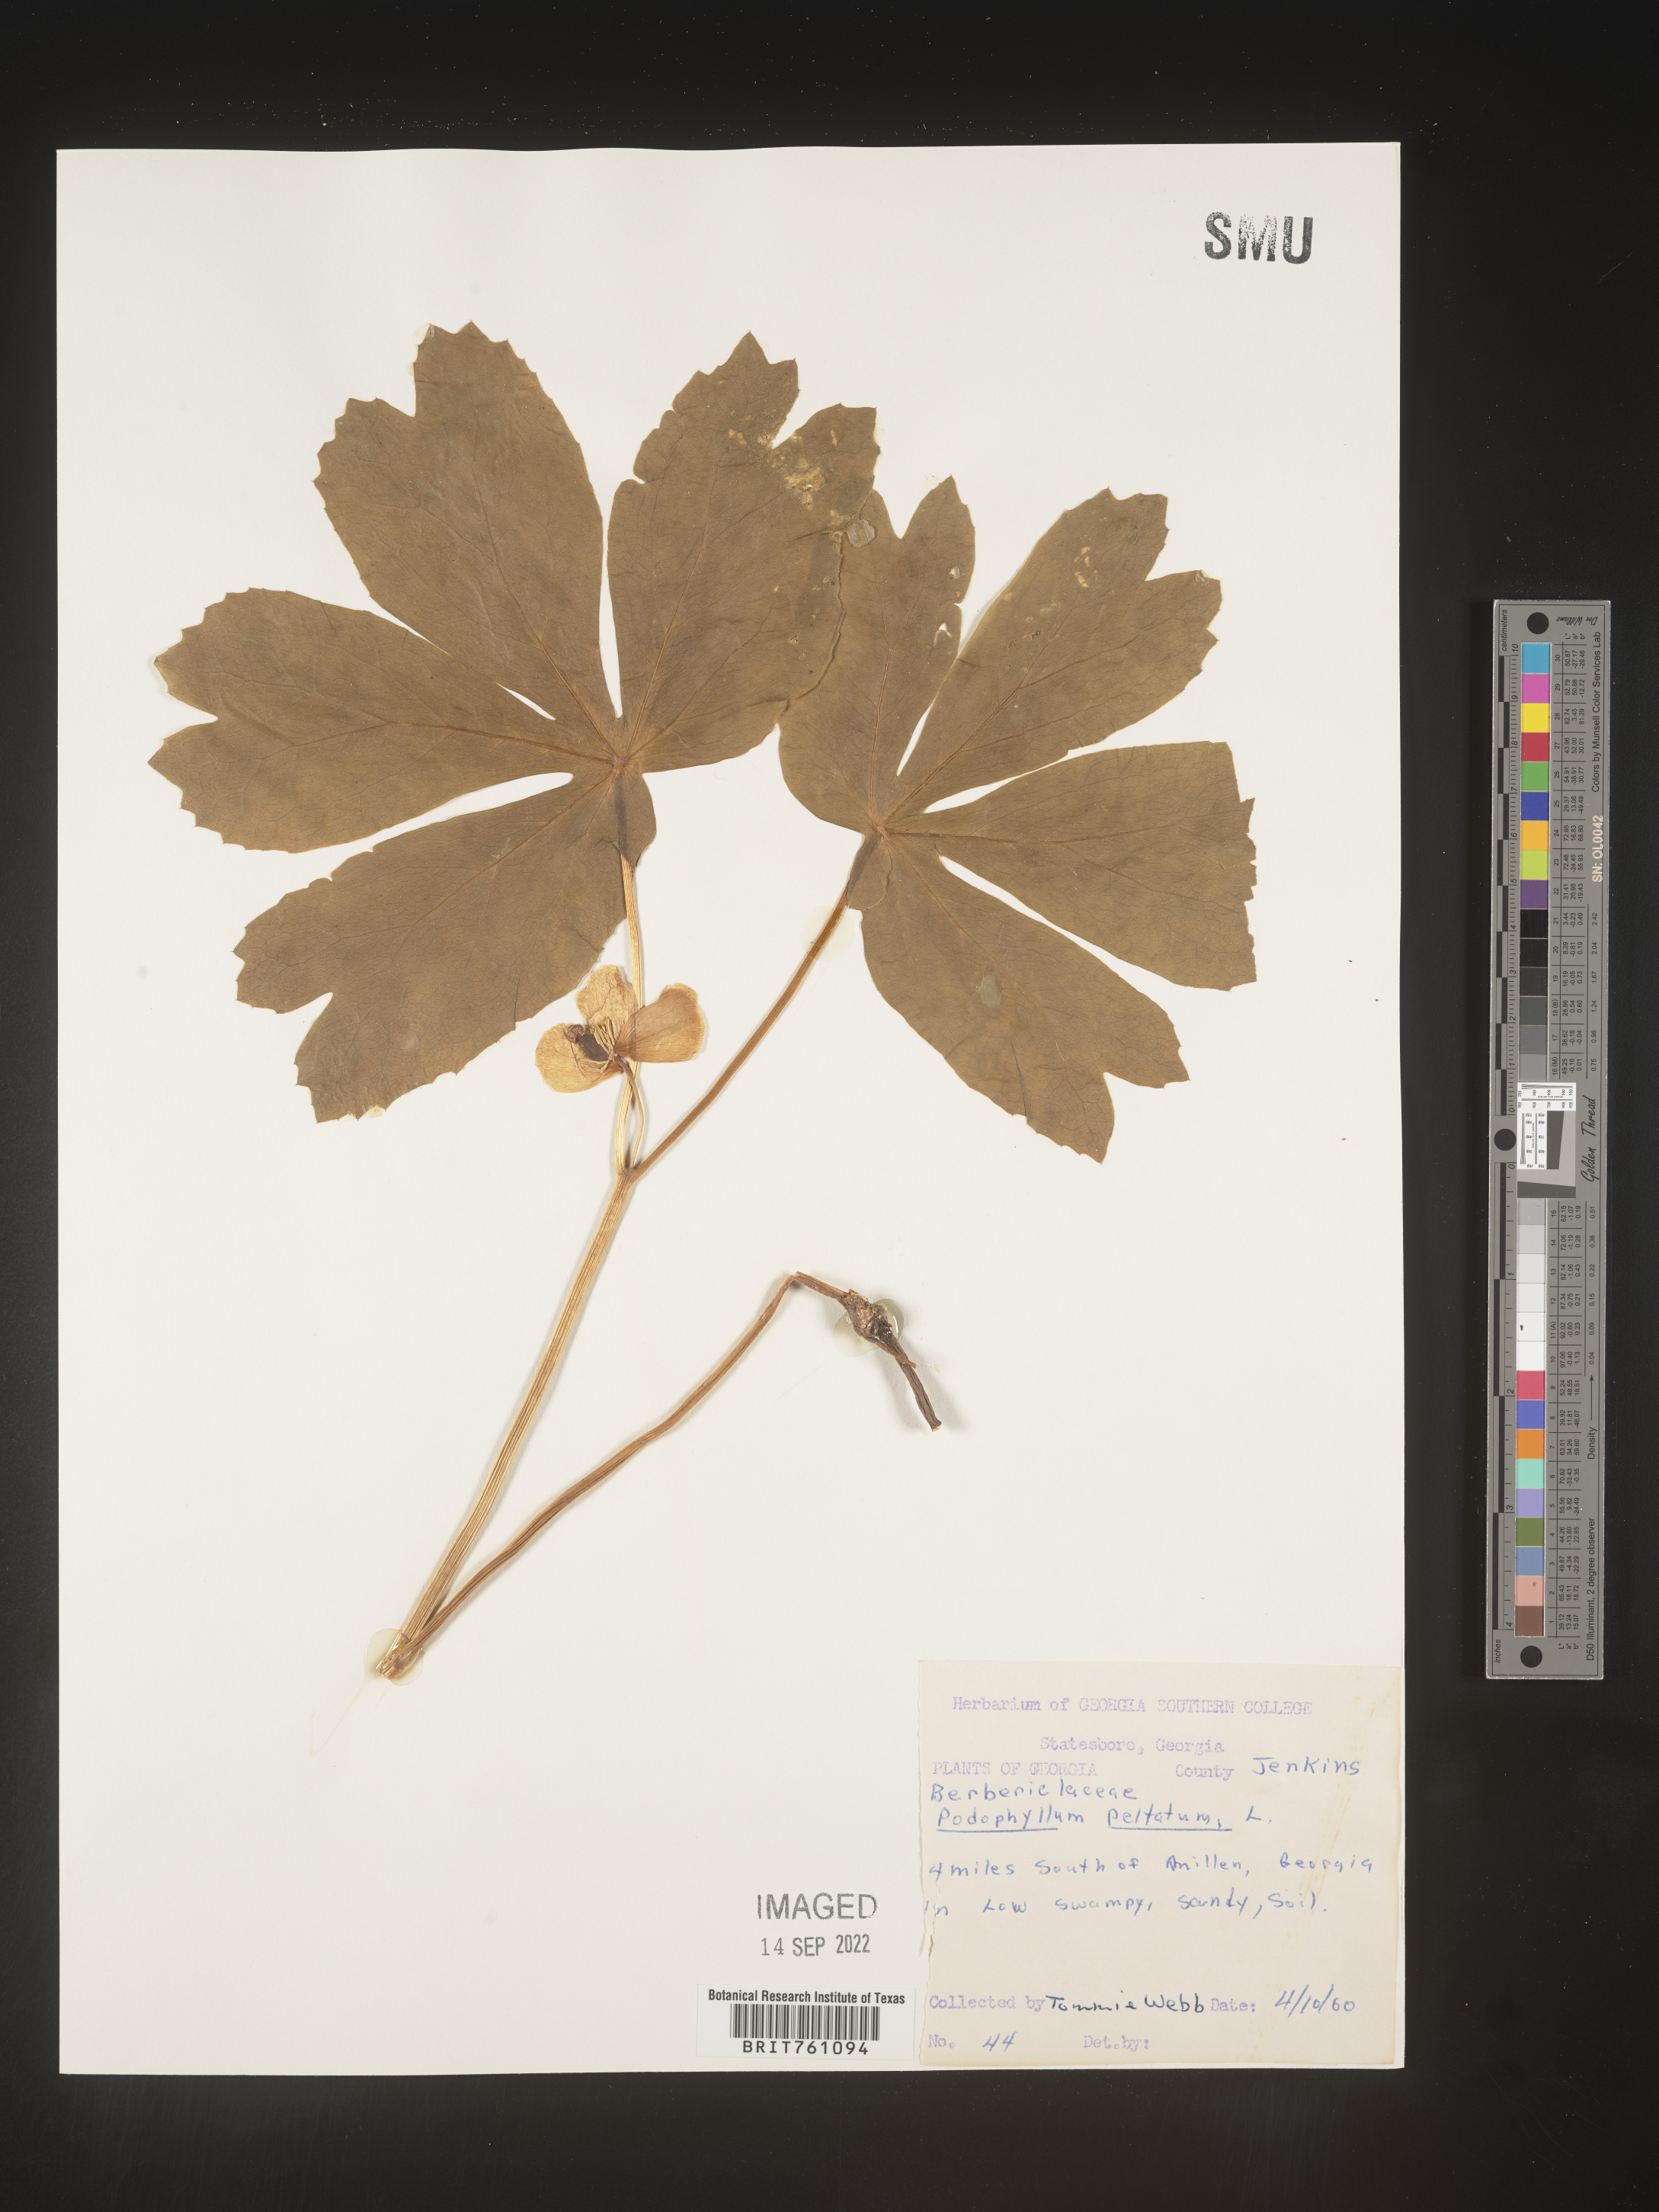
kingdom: Plantae
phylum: Tracheophyta
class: Magnoliopsida
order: Ranunculales
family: Berberidaceae
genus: Podophyllum
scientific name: Podophyllum peltatum
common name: Wild mandrake
